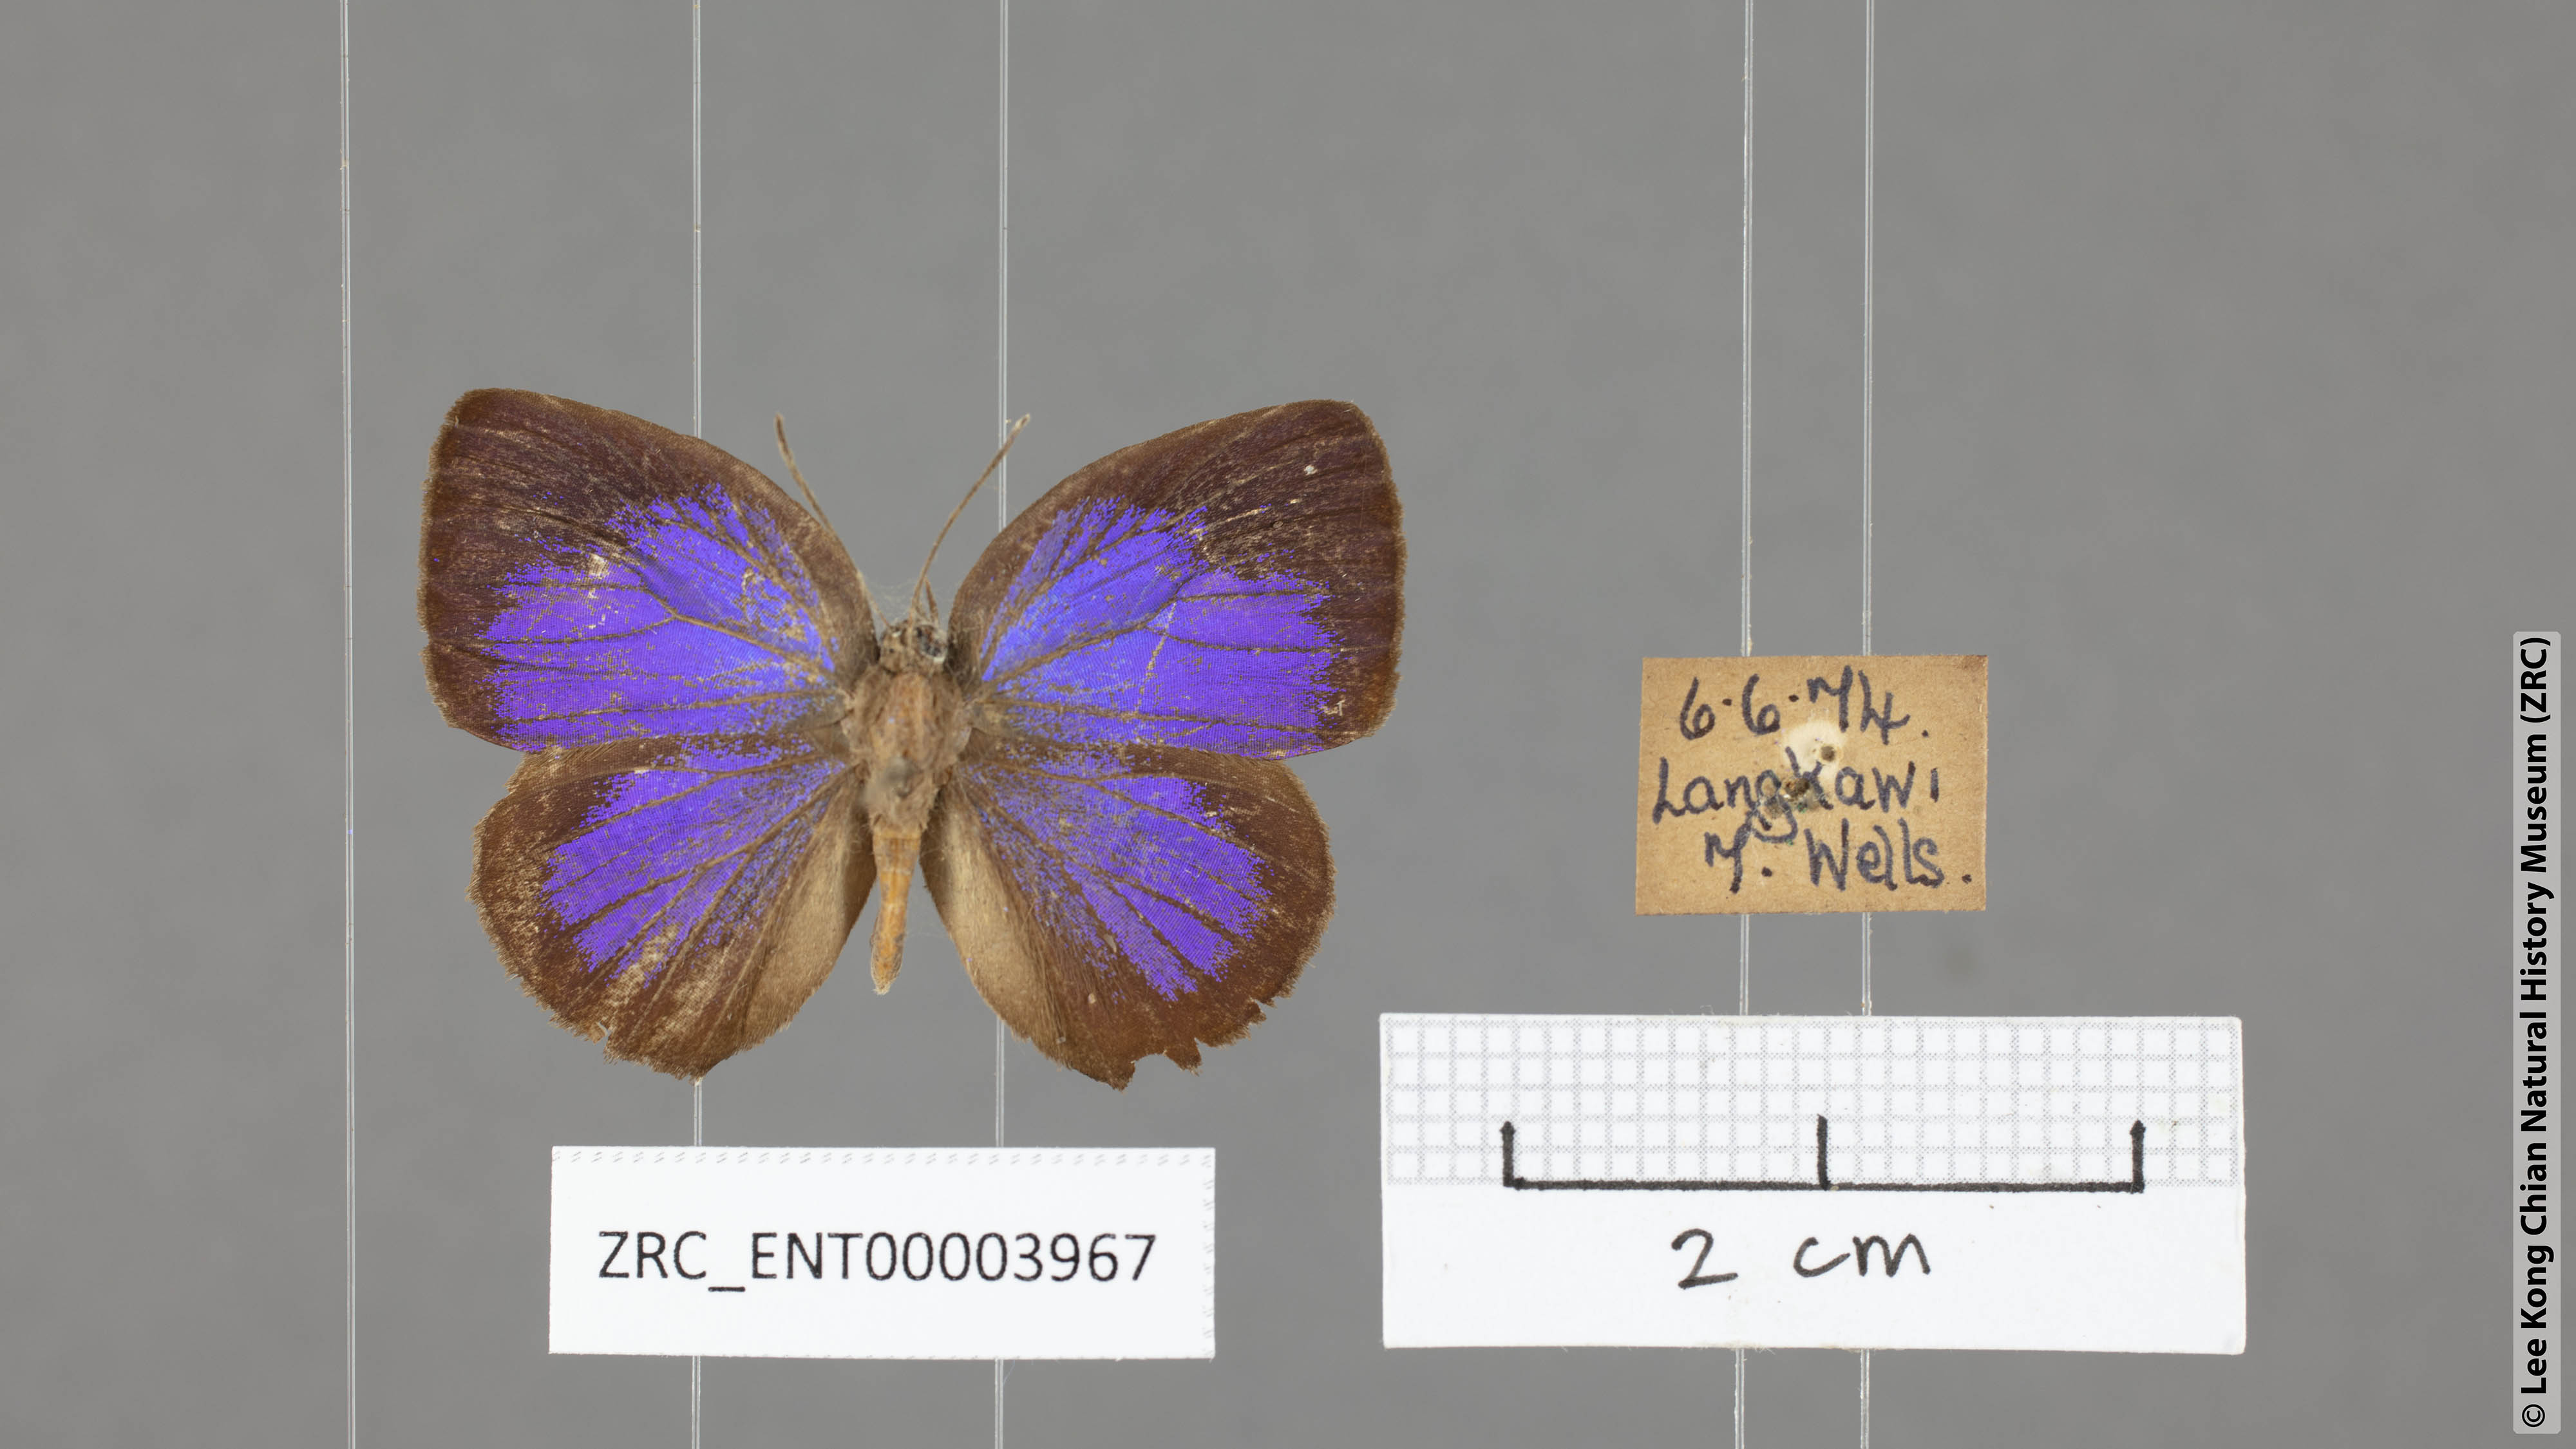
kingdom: Animalia
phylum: Arthropoda
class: Insecta
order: Lepidoptera
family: Lycaenidae
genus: Arhopala
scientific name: Arhopala hypomuta
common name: Violet oakblue
